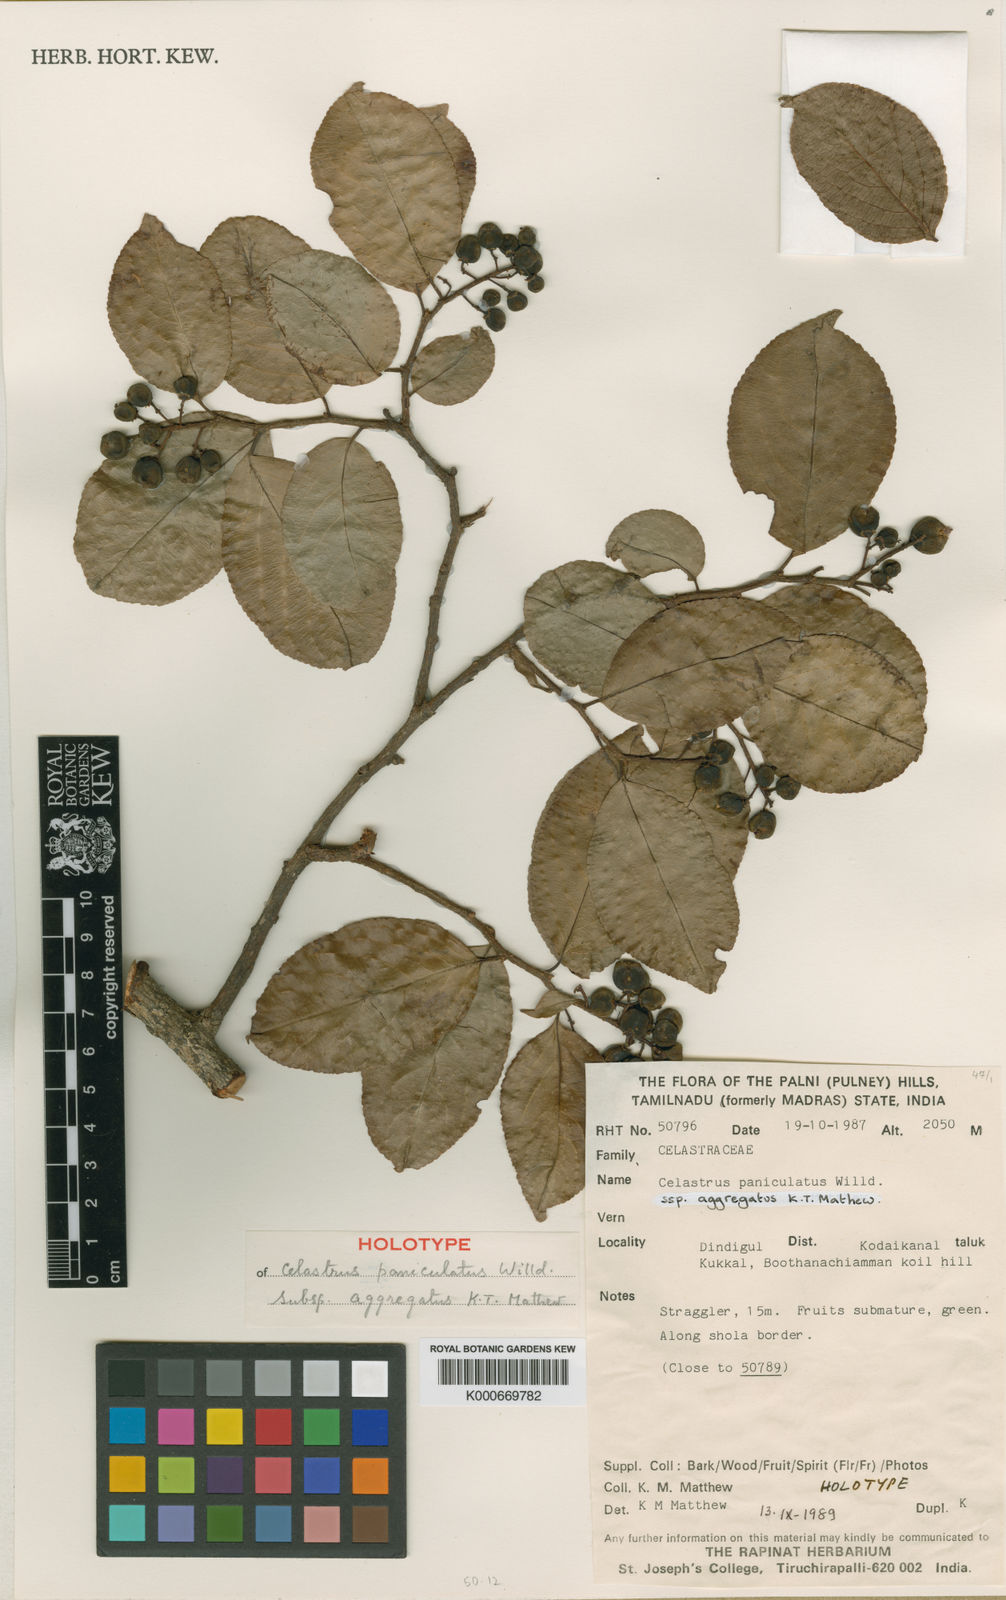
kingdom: Plantae
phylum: Tracheophyta
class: Magnoliopsida
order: Celastrales
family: Celastraceae
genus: Celastrus
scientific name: Celastrus paniculatus
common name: Oriental bittersweet; staff vine
